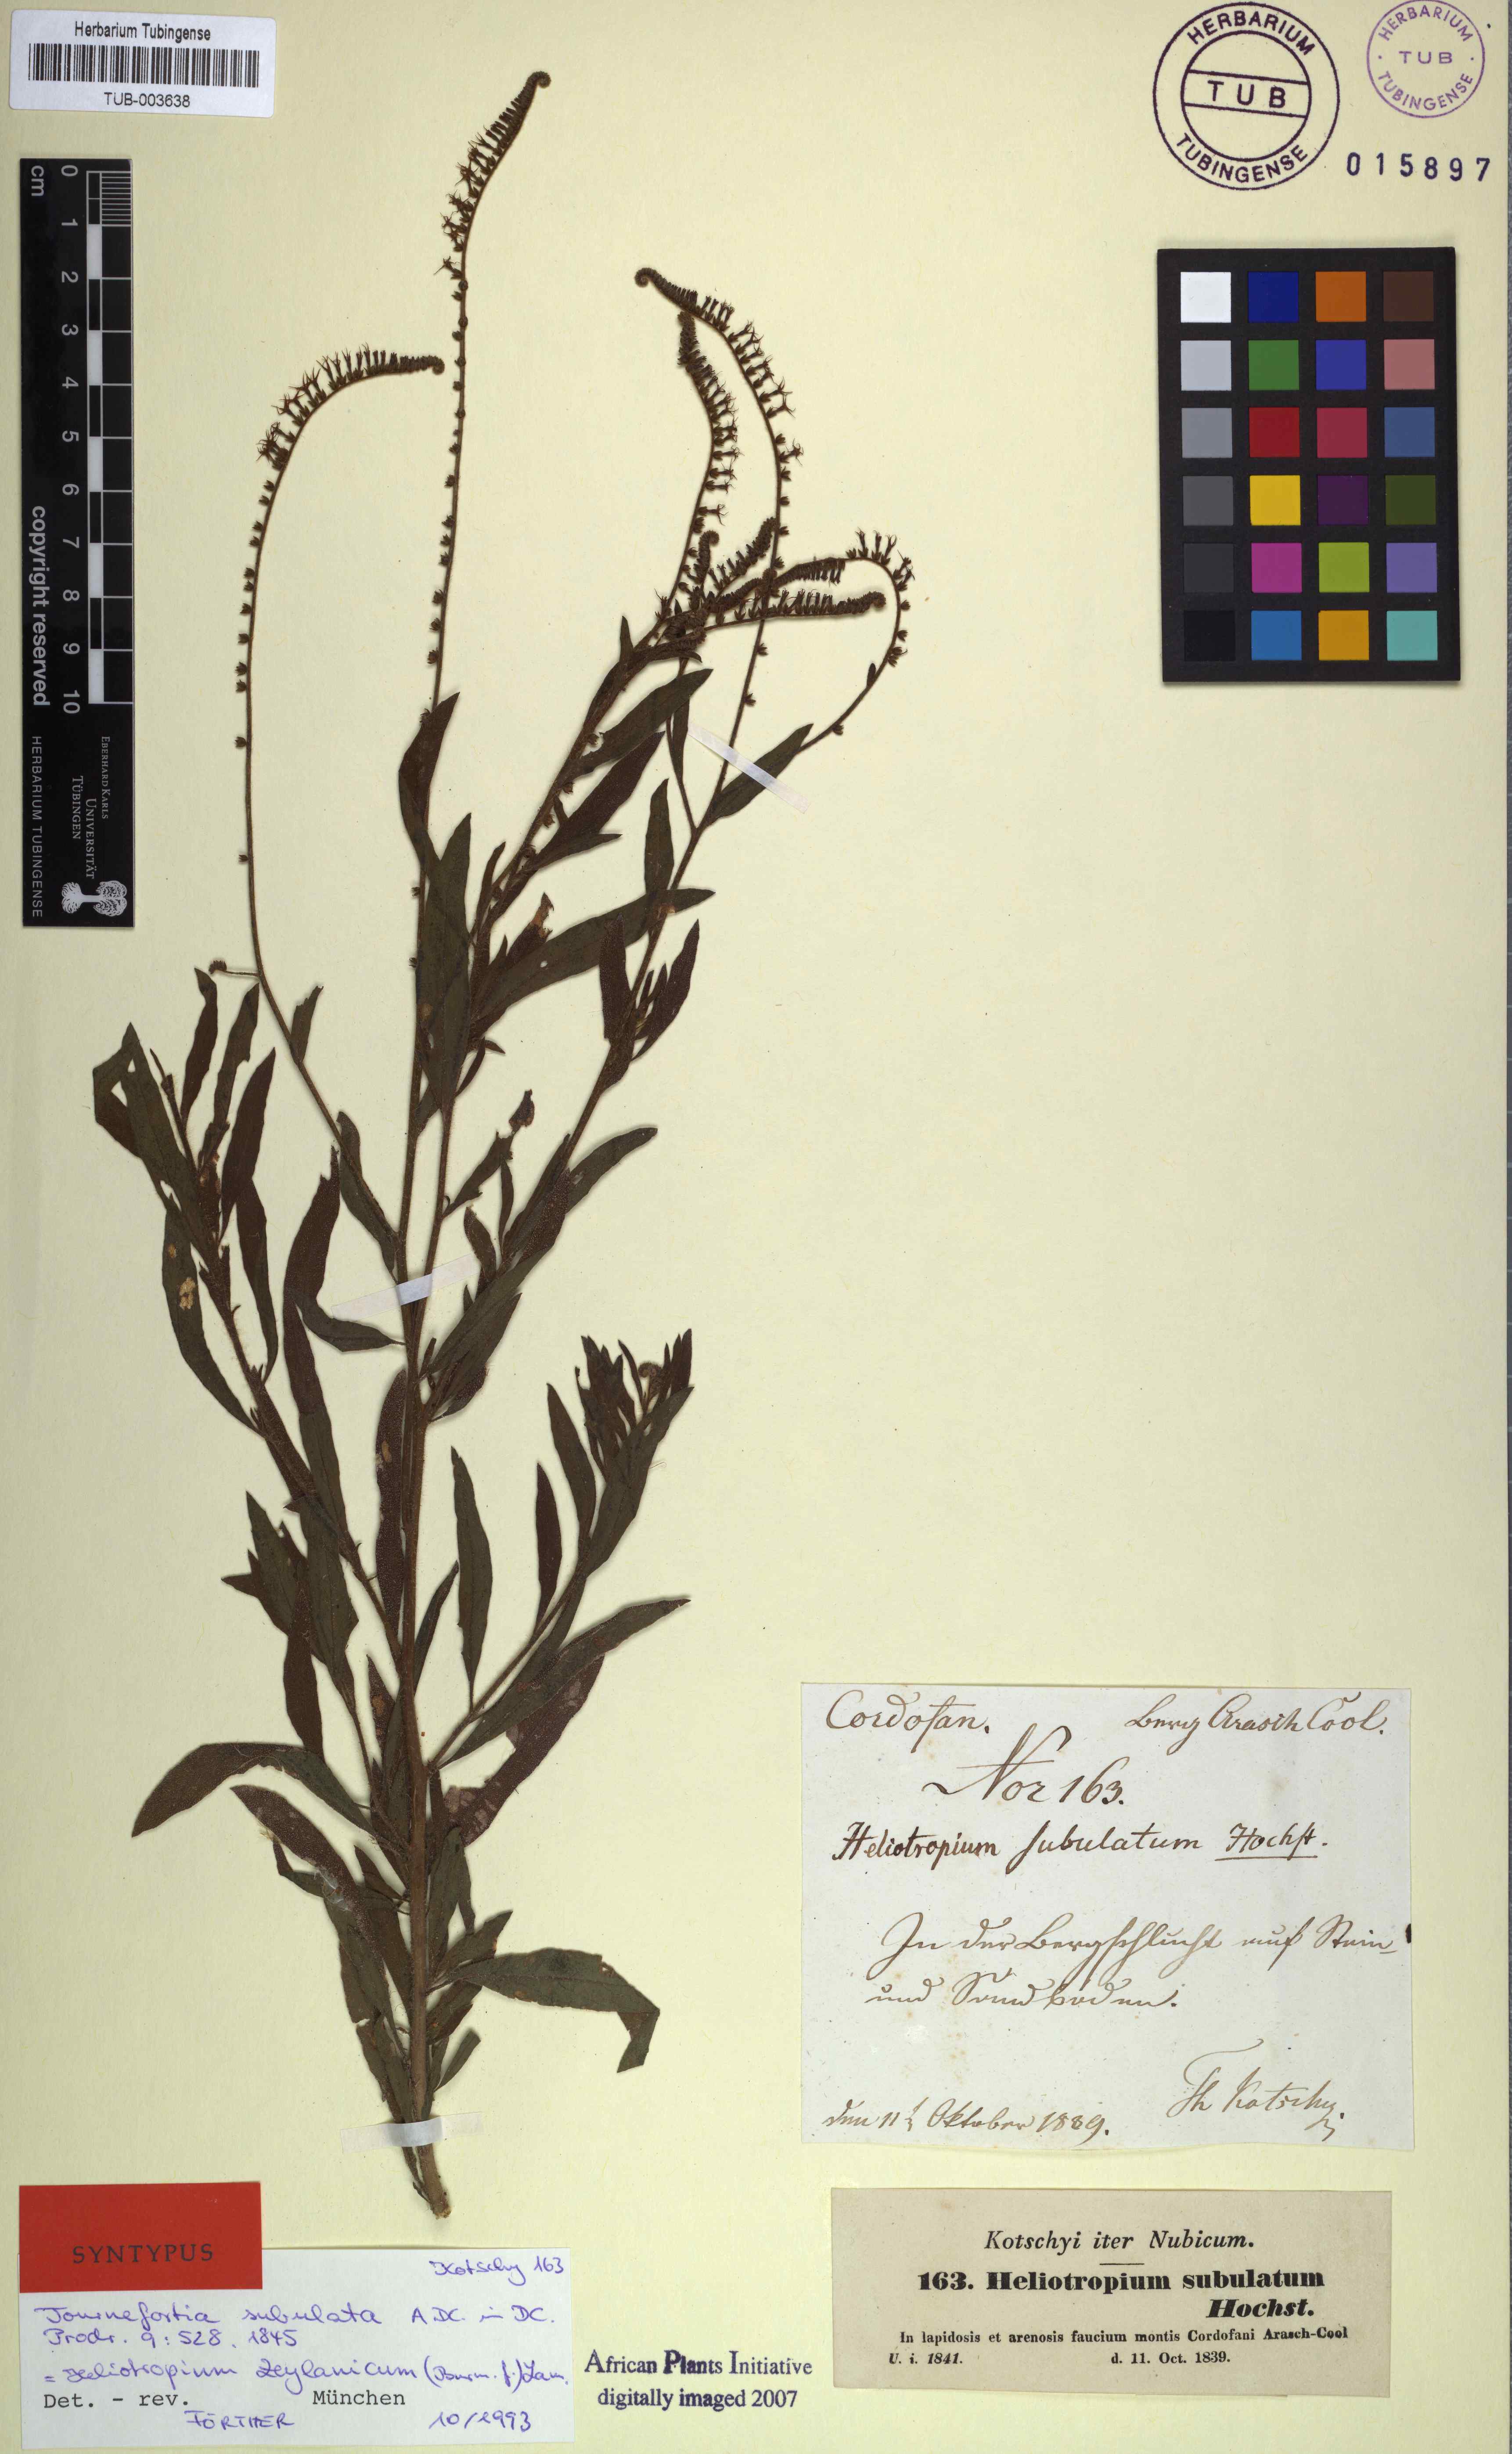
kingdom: Plantae
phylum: Tracheophyta
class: Magnoliopsida
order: Boraginales
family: Heliotropiaceae
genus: Heliotropium
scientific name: Heliotropium zeylanicum
